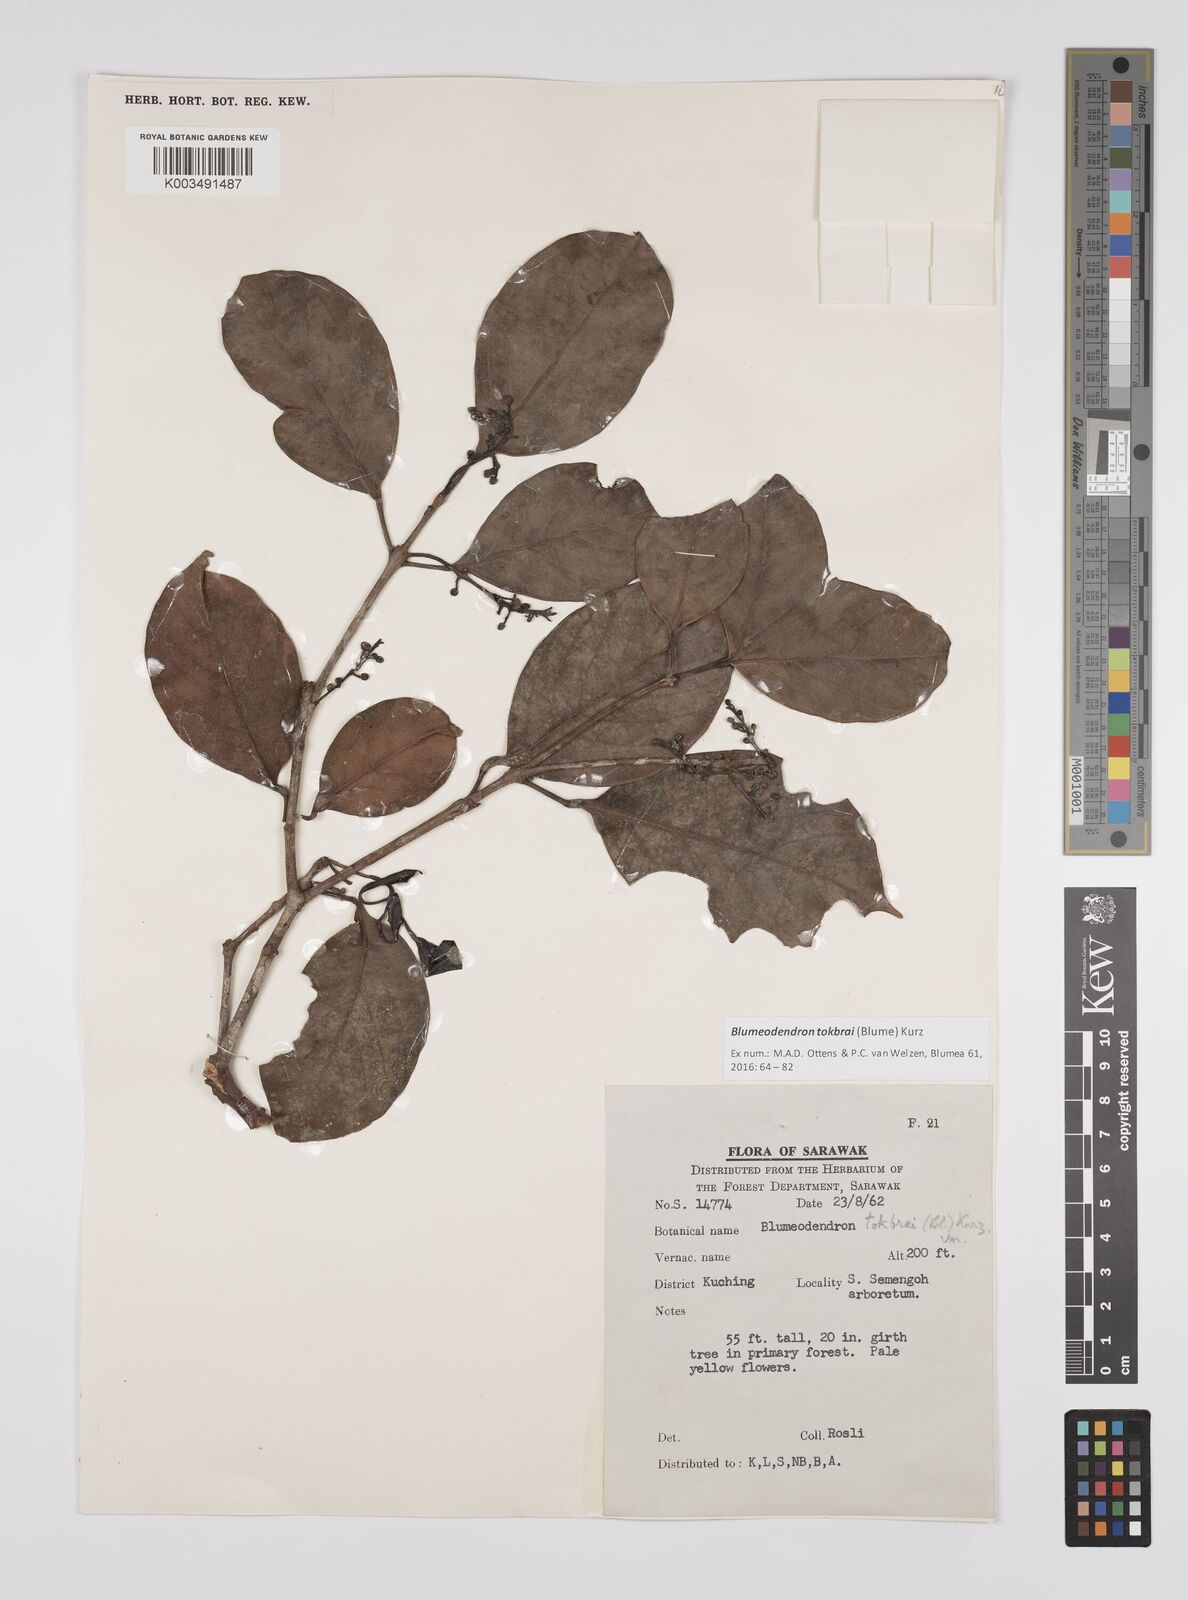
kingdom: Plantae
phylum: Tracheophyta
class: Magnoliopsida
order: Malpighiales
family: Euphorbiaceae
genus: Blumeodendron
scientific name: Blumeodendron tokbrai
